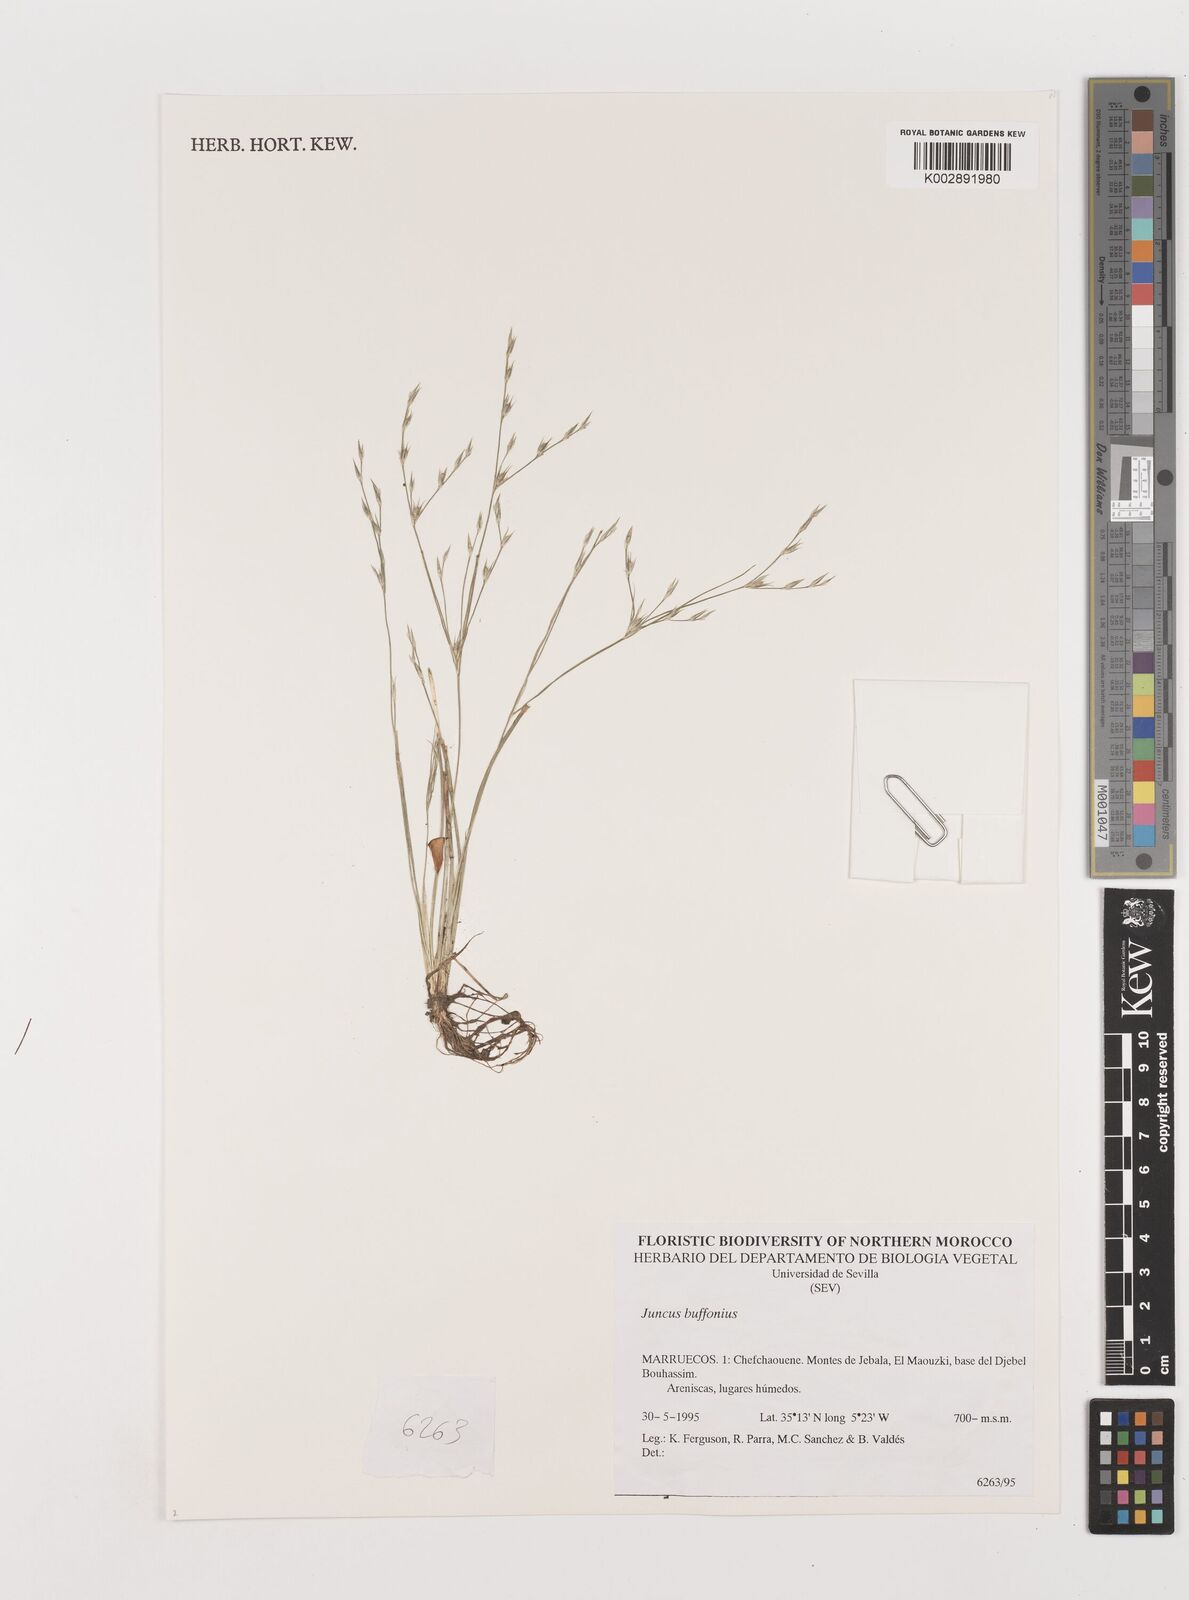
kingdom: Plantae
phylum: Tracheophyta
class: Liliopsida
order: Poales
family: Juncaceae
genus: Juncus
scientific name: Juncus bufonius
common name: Toad rush
